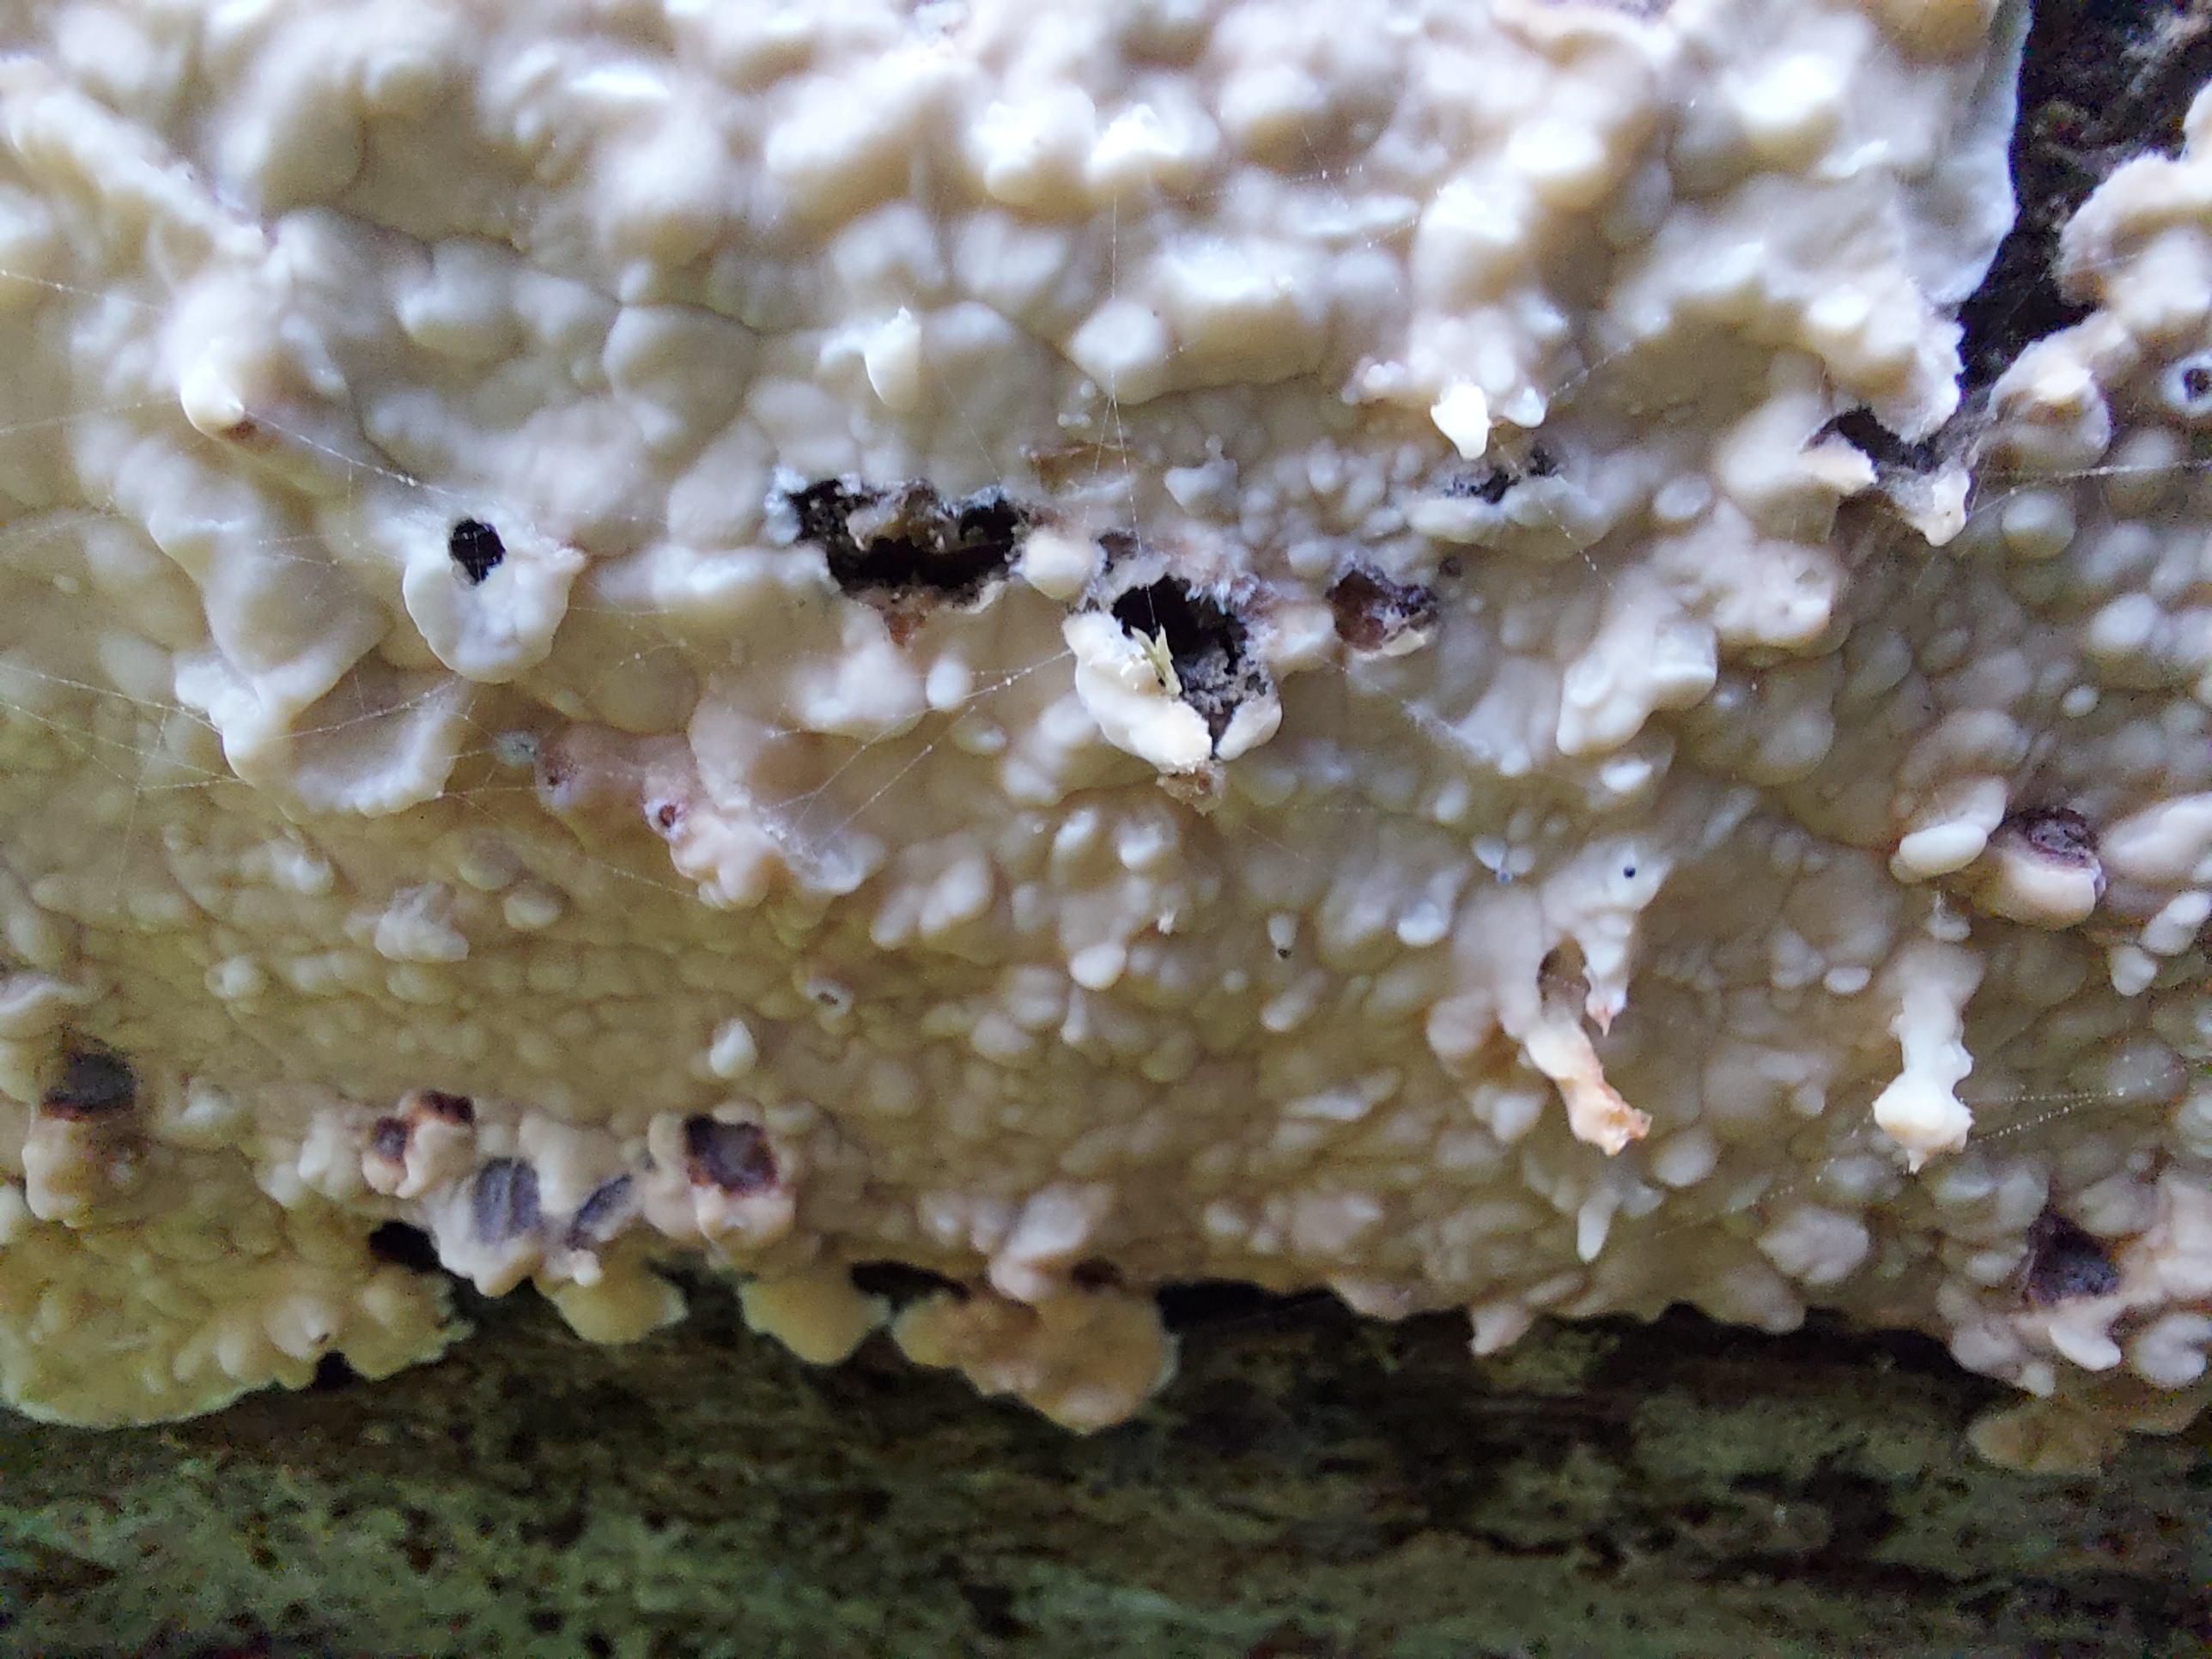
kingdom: Fungi
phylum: Basidiomycota
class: Agaricomycetes
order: Polyporales
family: Dacryobolaceae
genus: Dacryobolus
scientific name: Dacryobolus karstenii
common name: glat vulkanskorpe
